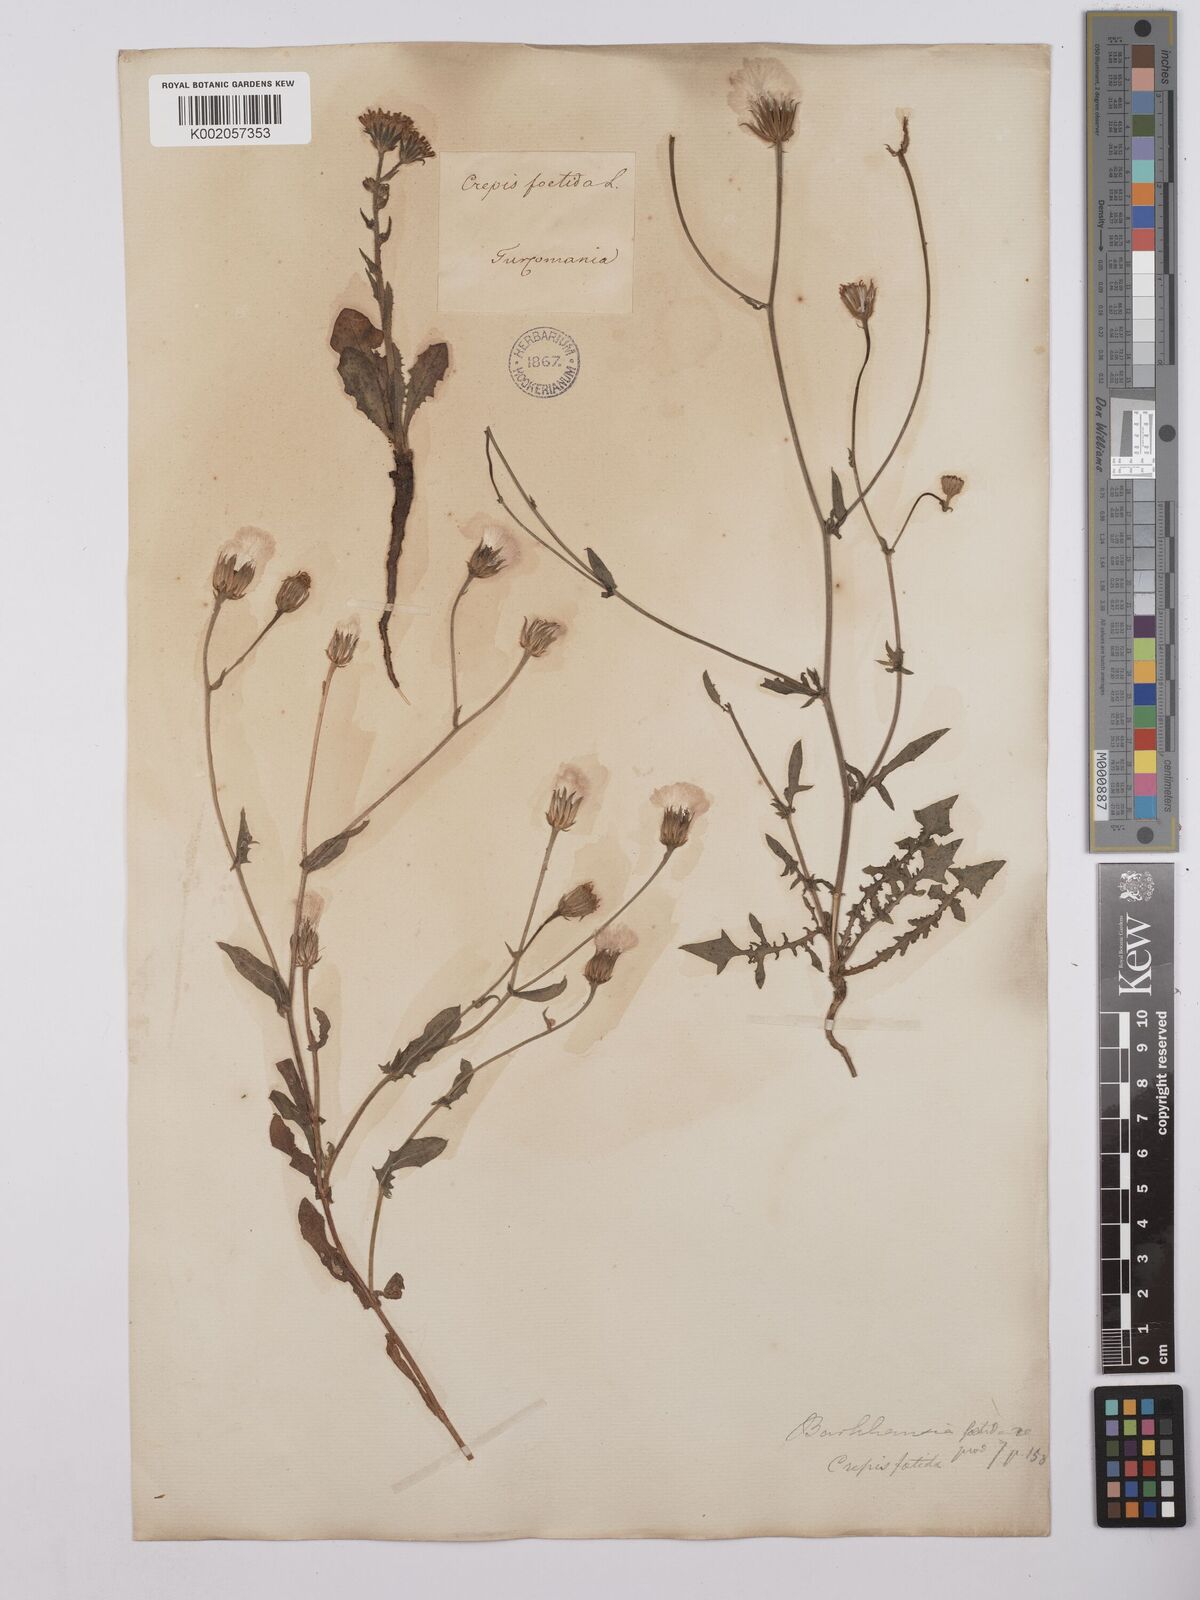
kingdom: Plantae
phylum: Tracheophyta
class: Magnoliopsida
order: Asterales
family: Asteraceae
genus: Crepis
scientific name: Crepis foetida
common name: Stinking hawk's-beard
